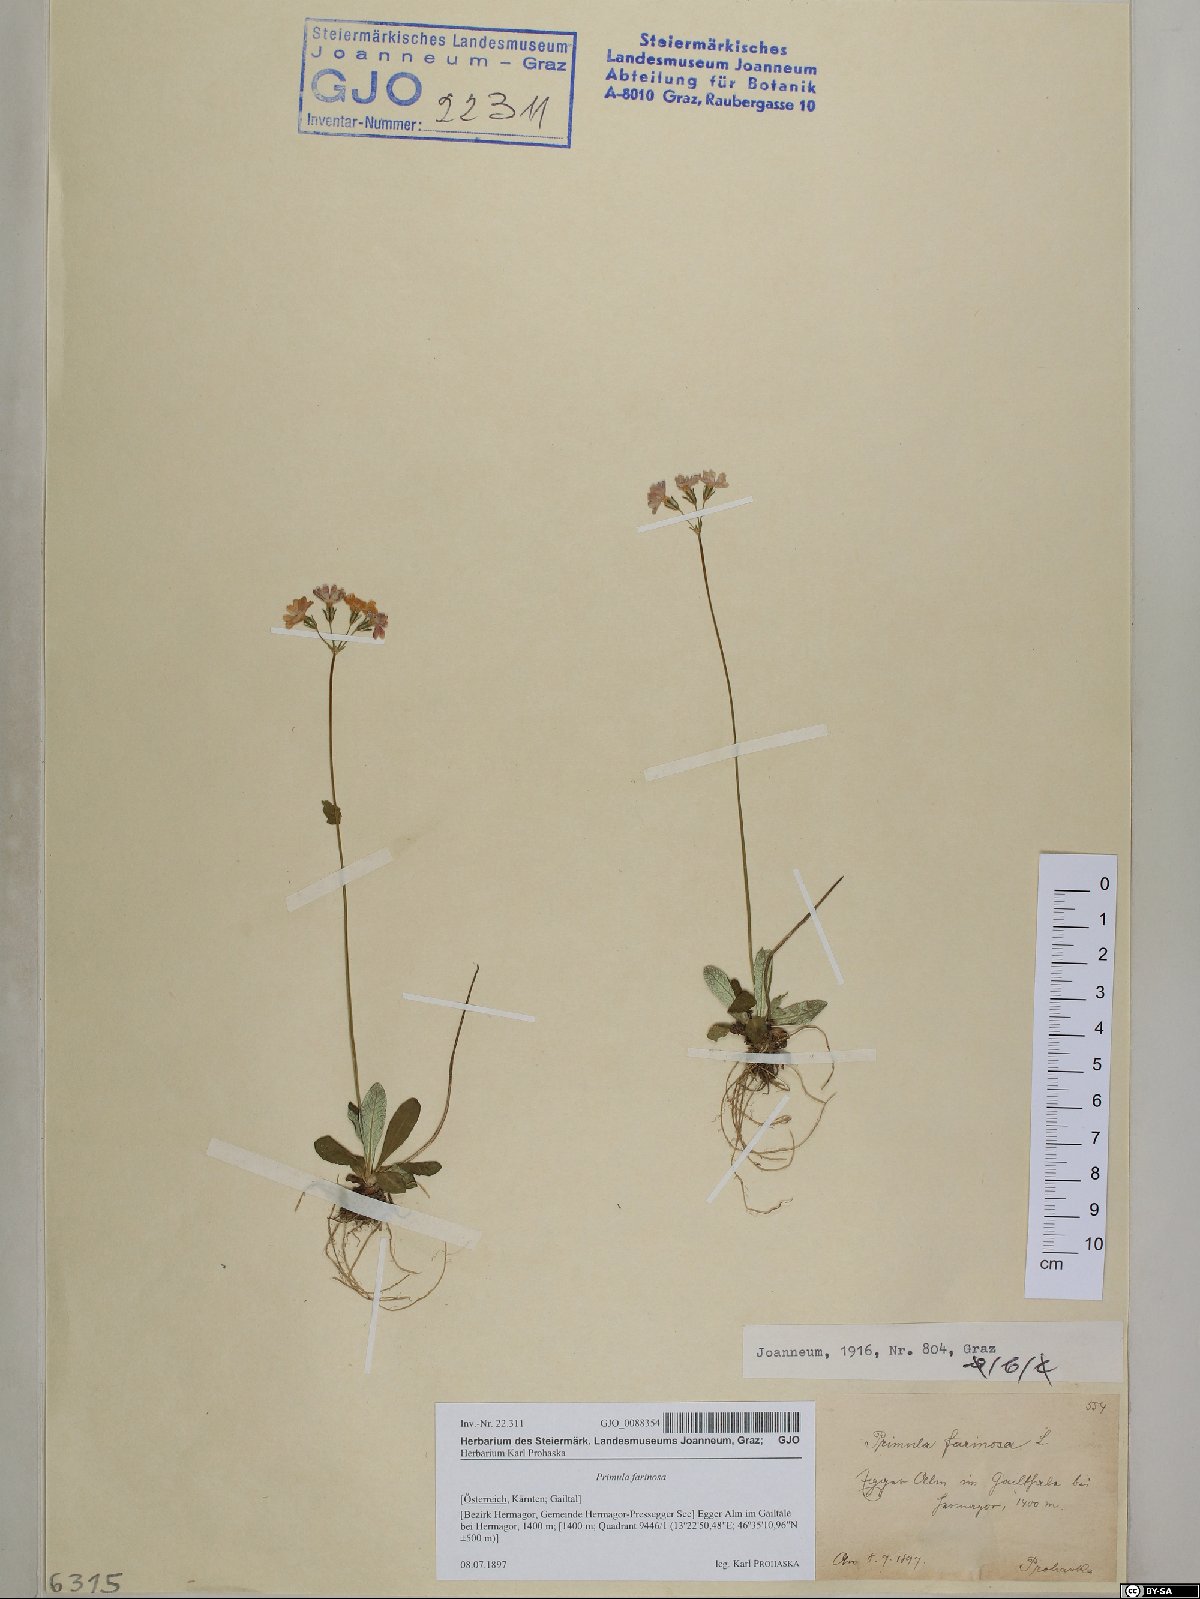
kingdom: Plantae
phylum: Tracheophyta
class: Magnoliopsida
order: Ericales
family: Primulaceae
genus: Primula
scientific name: Primula farinosa
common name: Bird's-eye primrose
